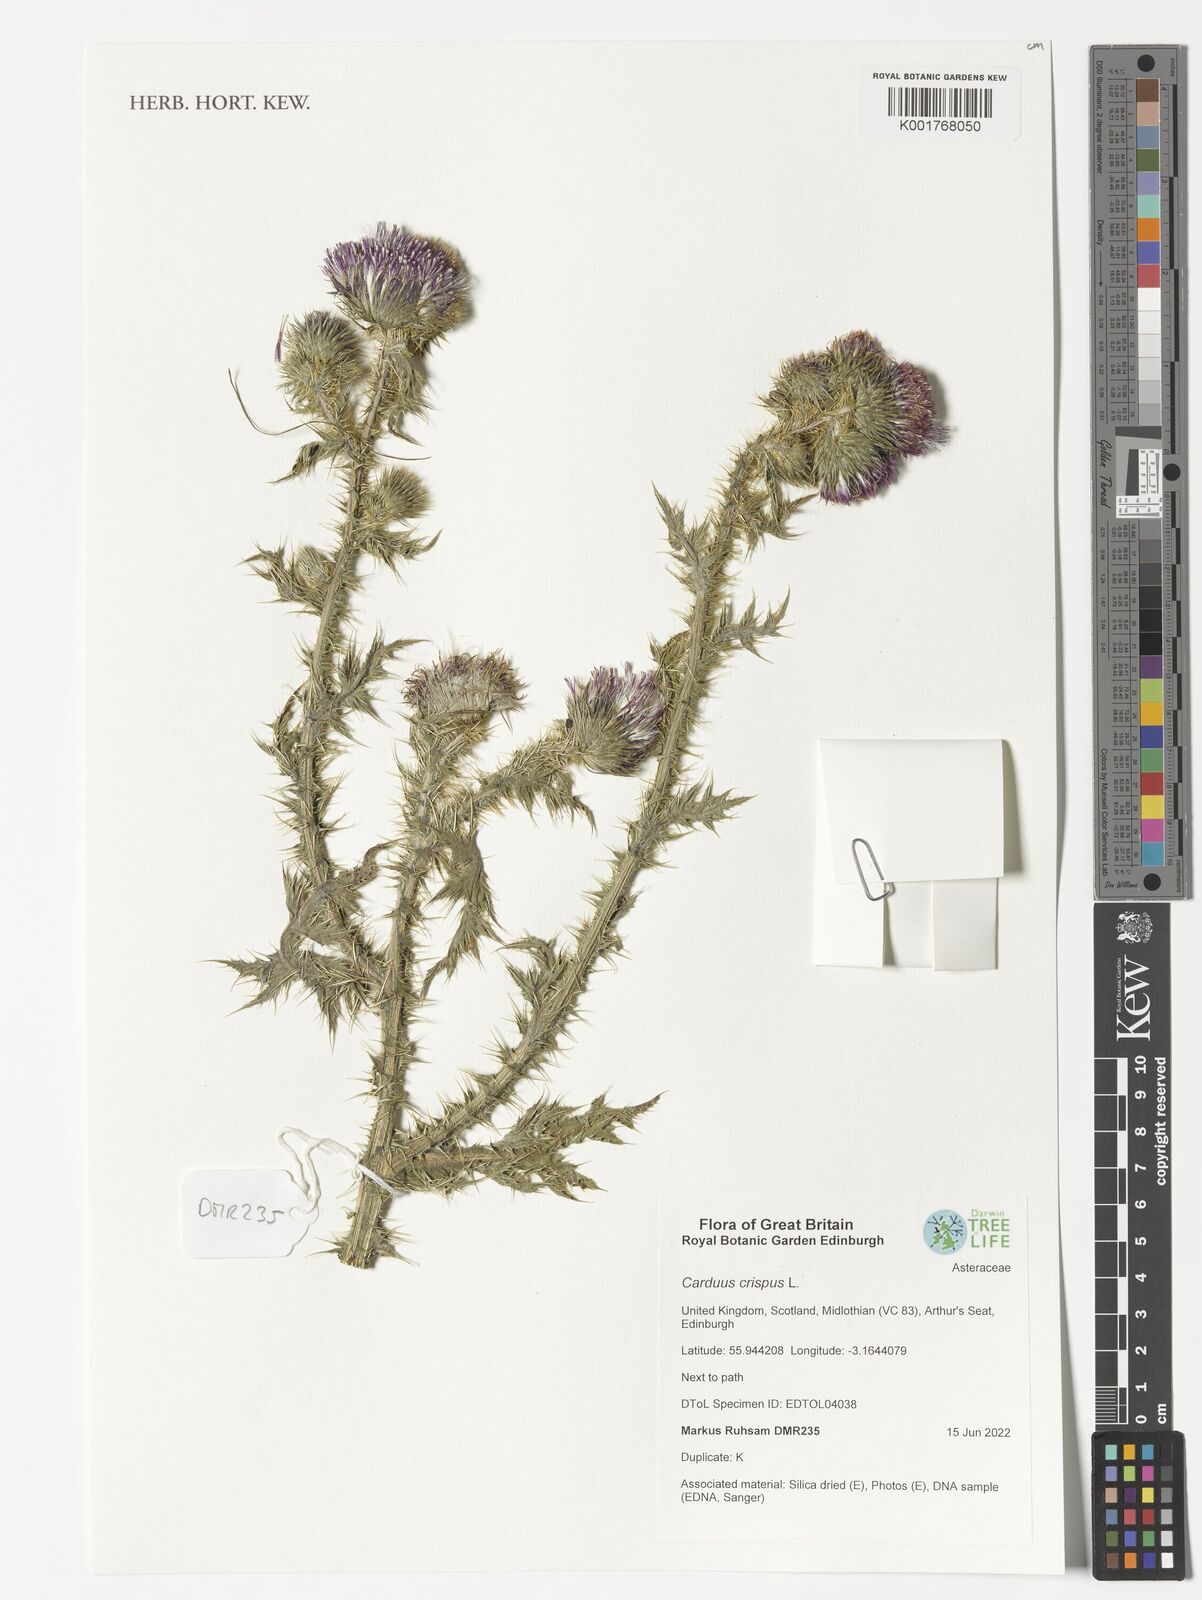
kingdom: Plantae
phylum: Tracheophyta
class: Magnoliopsida
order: Asterales
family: Asteraceae
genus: Carduus
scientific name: Carduus crispus
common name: Welted thistle
